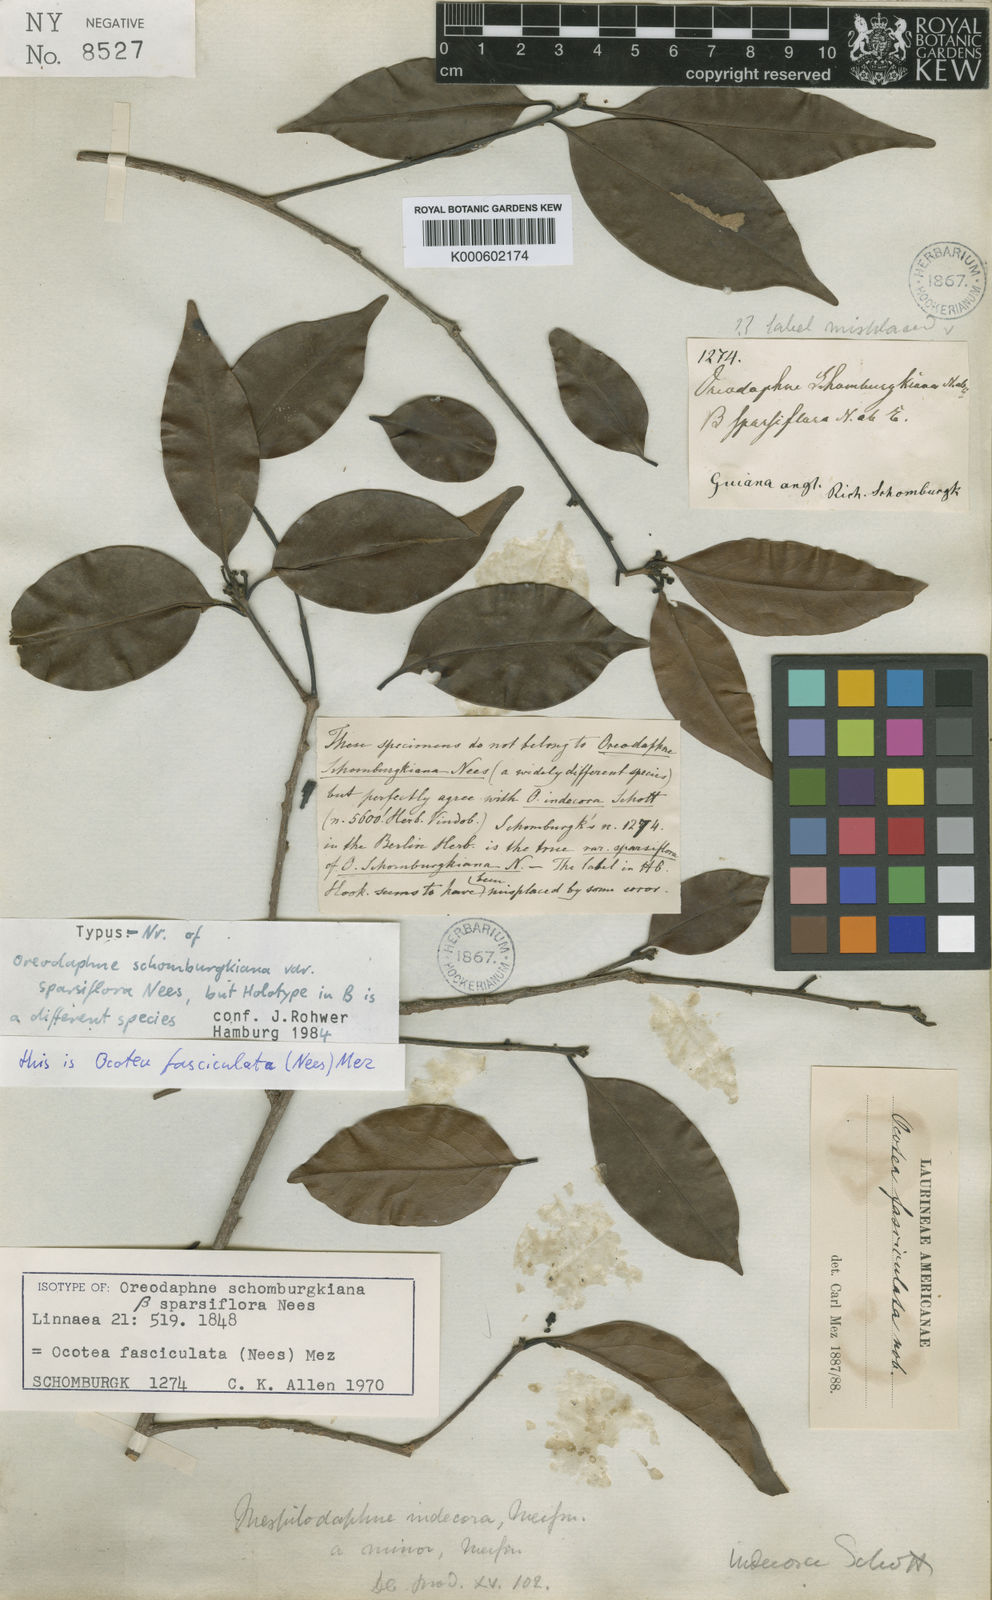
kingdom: Plantae
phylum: Tracheophyta
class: Magnoliopsida
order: Laurales
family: Lauraceae
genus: Mespilodaphne
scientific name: Mespilodaphne fasciculata
